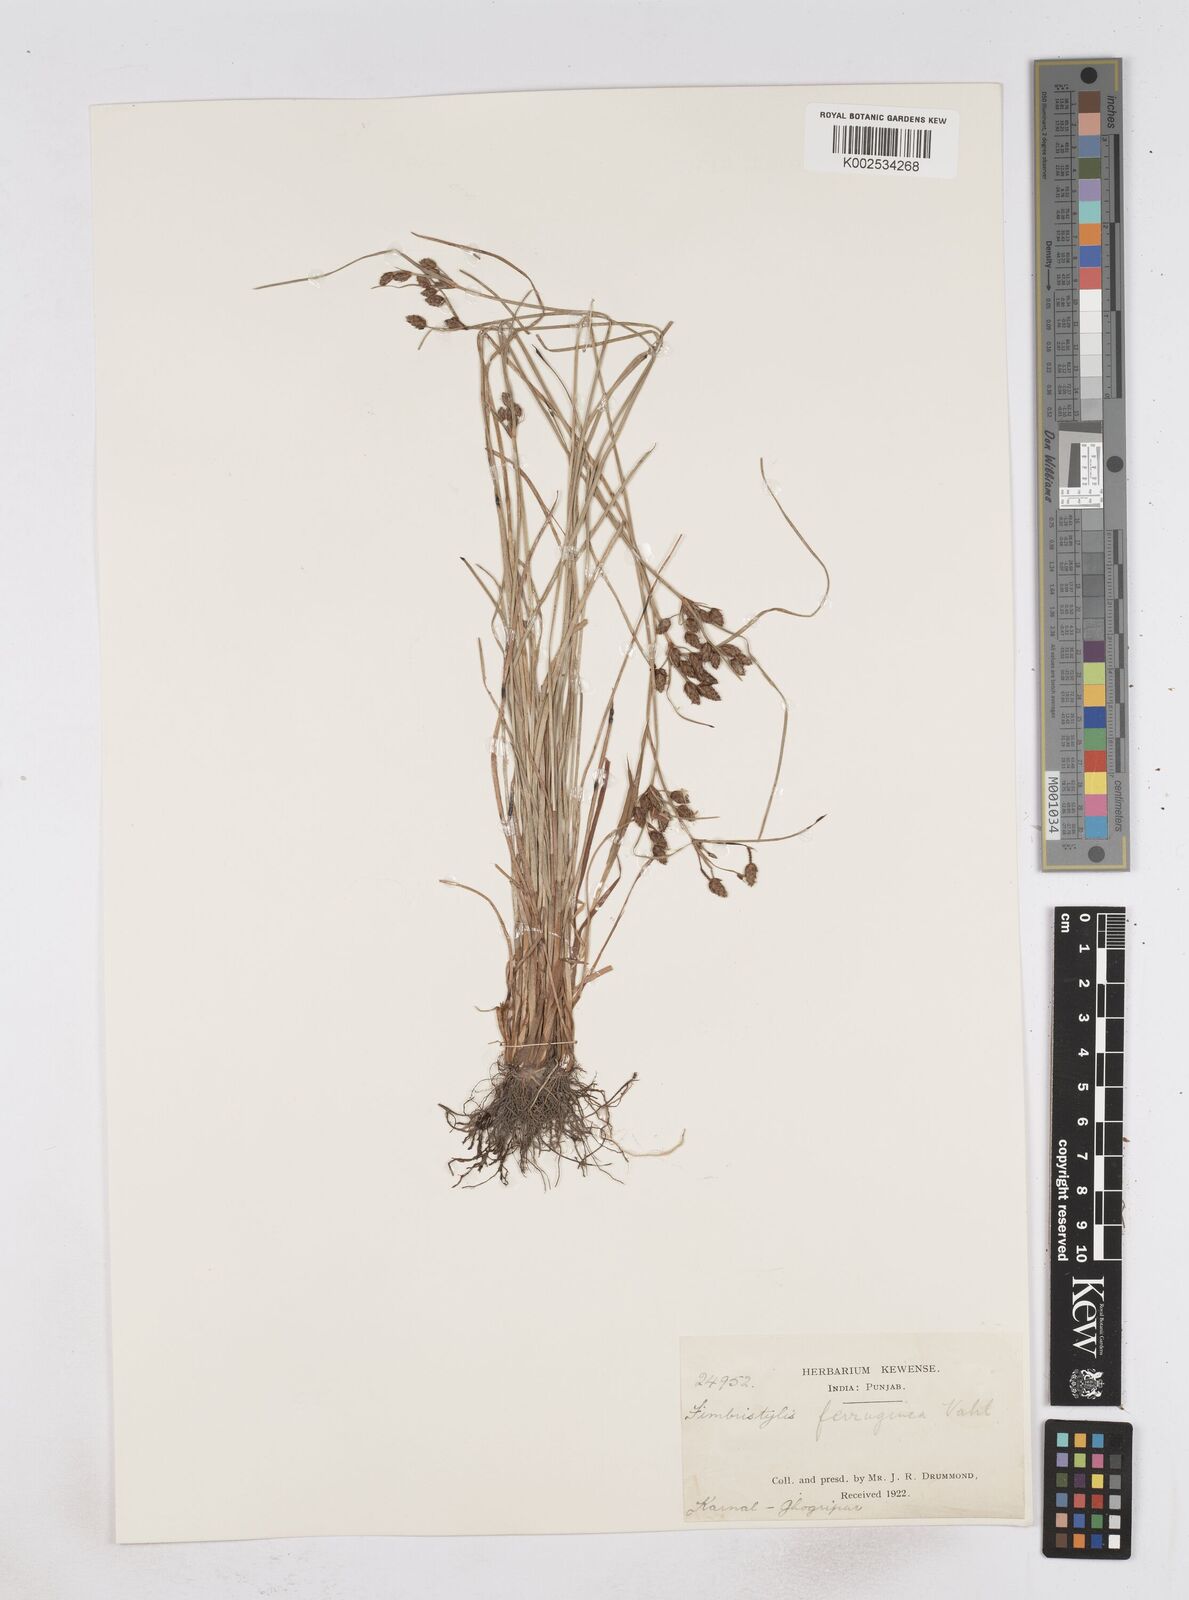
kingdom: Plantae
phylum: Tracheophyta
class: Liliopsida
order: Poales
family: Cyperaceae
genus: Fimbristylis
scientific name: Fimbristylis ferruginea
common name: West indian fimbry
